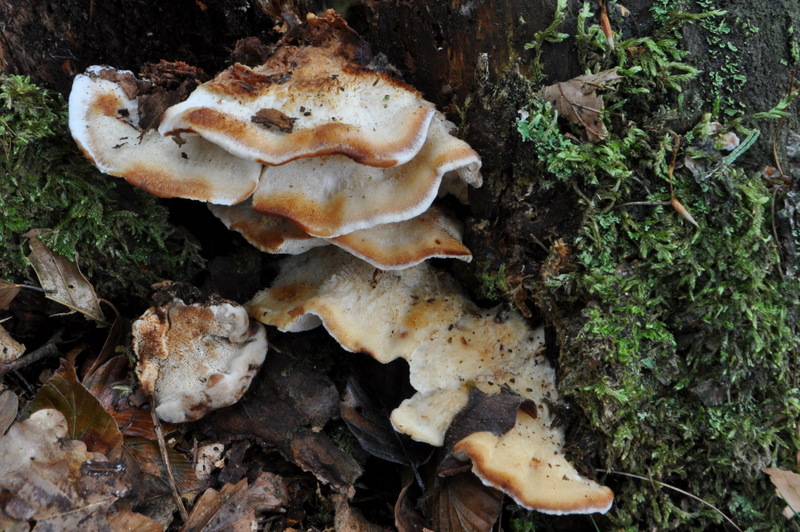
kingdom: Fungi
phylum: Basidiomycota
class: Agaricomycetes
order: Polyporales
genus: Fuscopostia
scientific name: Fuscopostia fragilis
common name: brunende kødporesvamp
